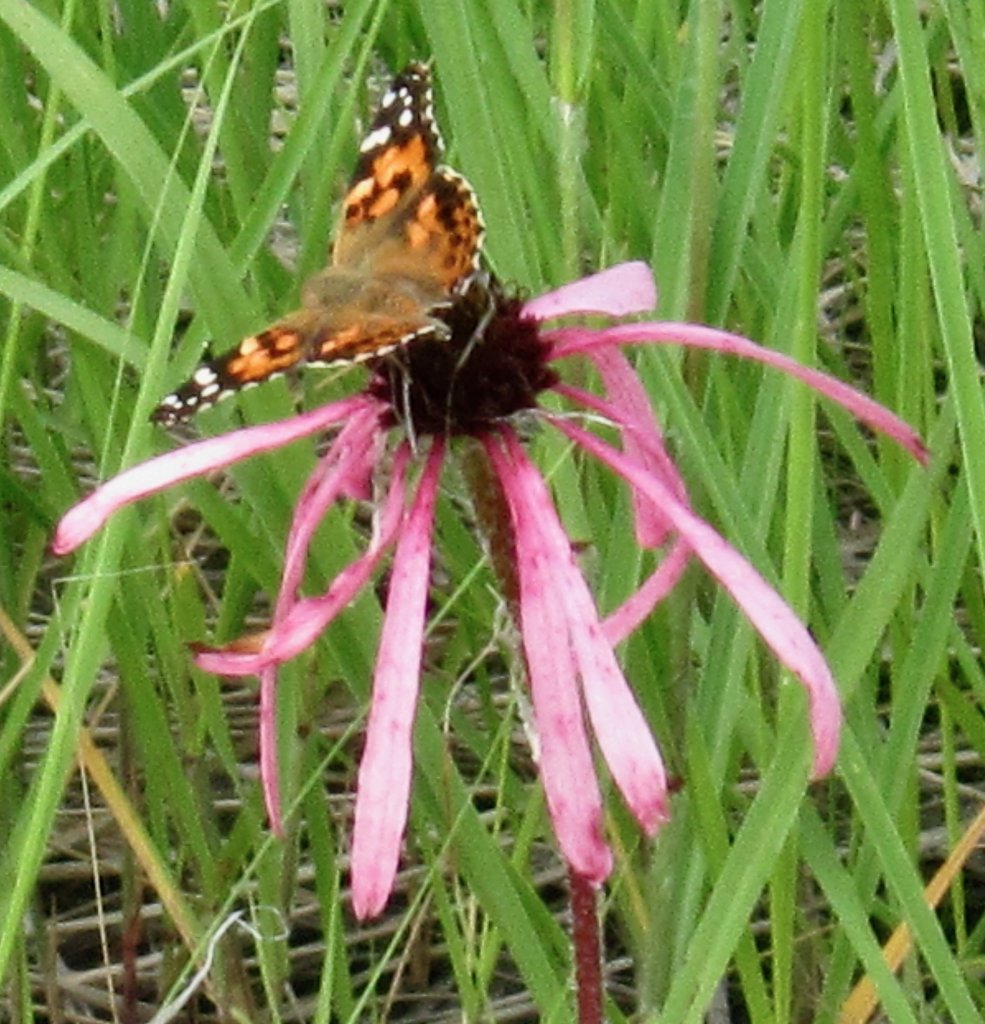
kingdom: Animalia
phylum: Arthropoda
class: Insecta
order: Lepidoptera
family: Nymphalidae
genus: Vanessa
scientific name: Vanessa cardui
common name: Painted Lady
